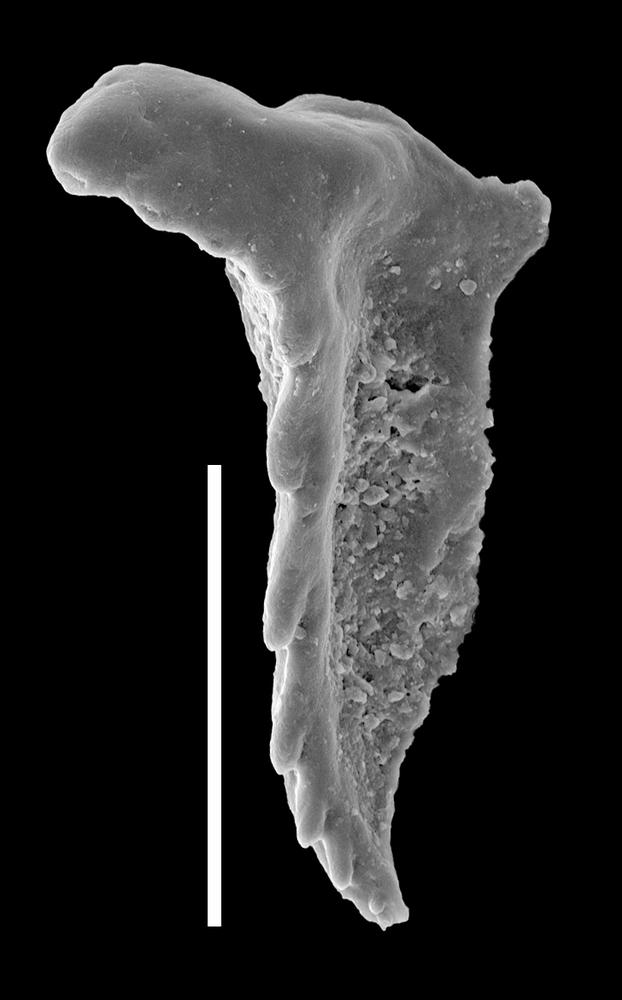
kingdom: Animalia
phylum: Annelida
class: Polychaeta
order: Eunicida
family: Conjungaspidae
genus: Conjungaspis
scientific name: Conjungaspis minutus
